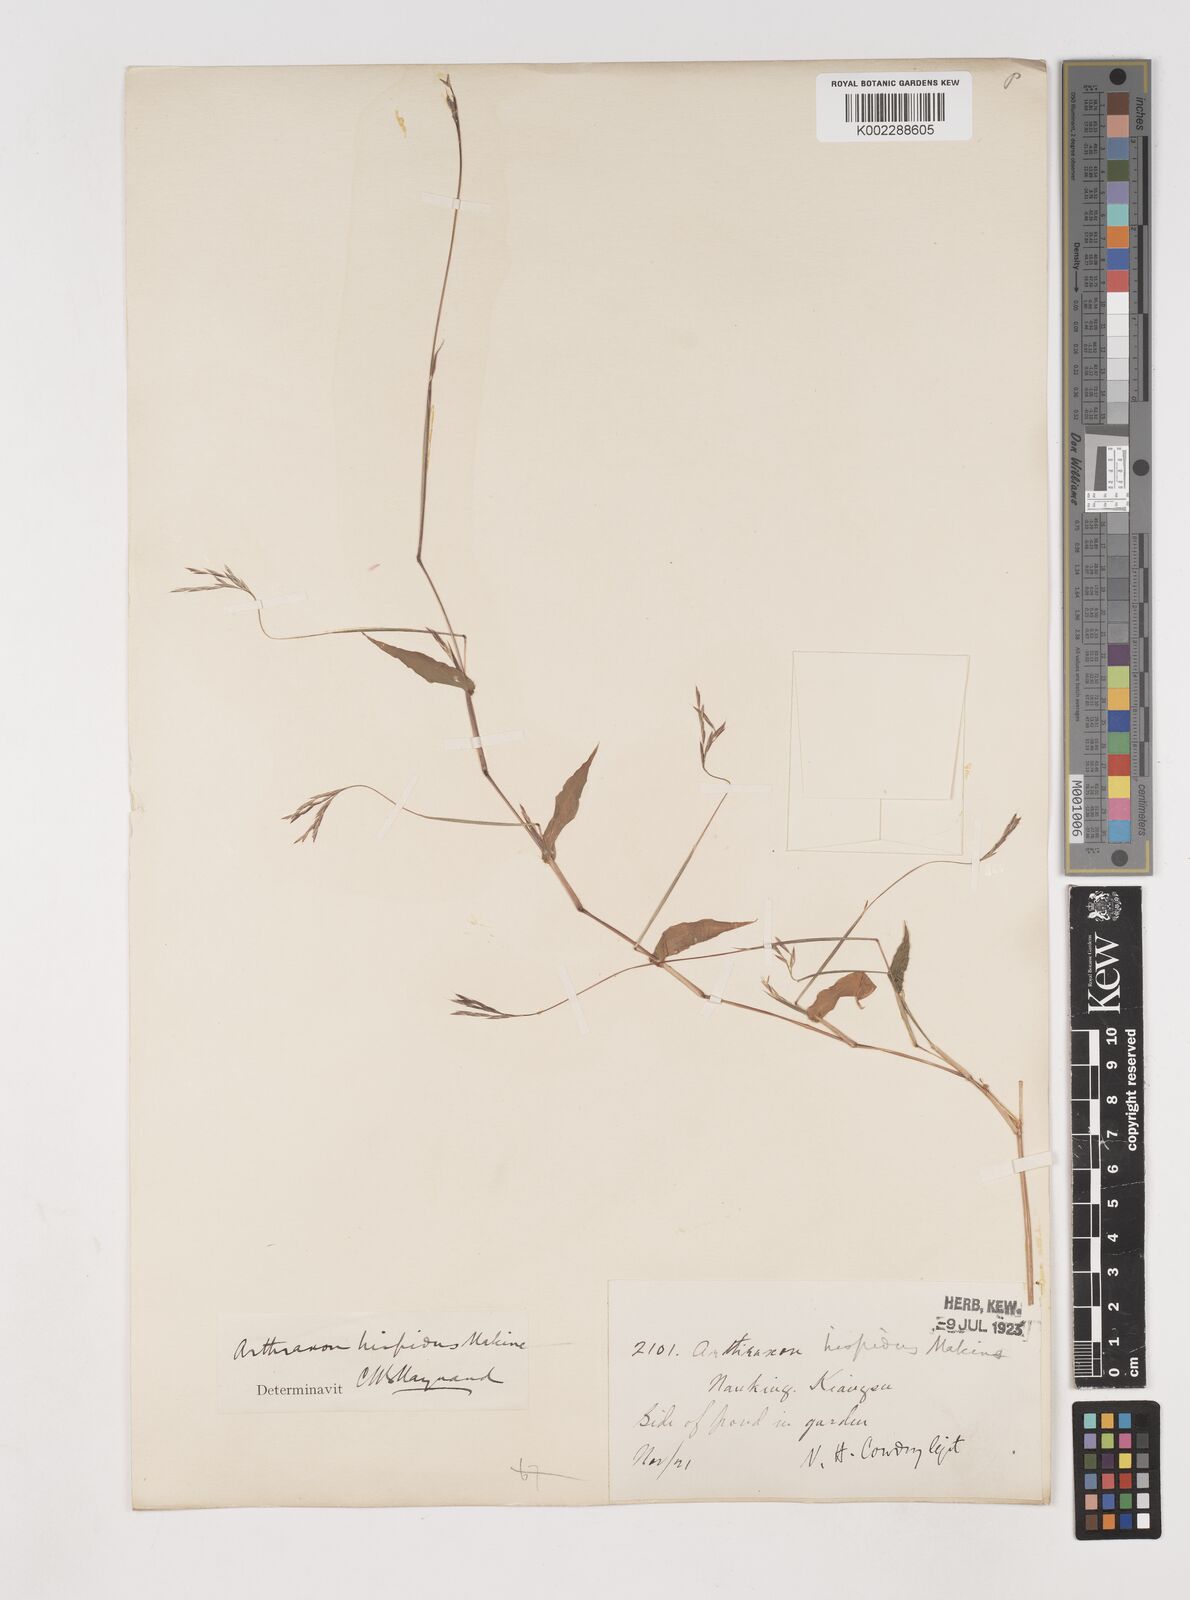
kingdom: Plantae
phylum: Tracheophyta
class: Liliopsida
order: Poales
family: Poaceae
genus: Arthraxon
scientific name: Arthraxon hispidus
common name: Small carpgrass
